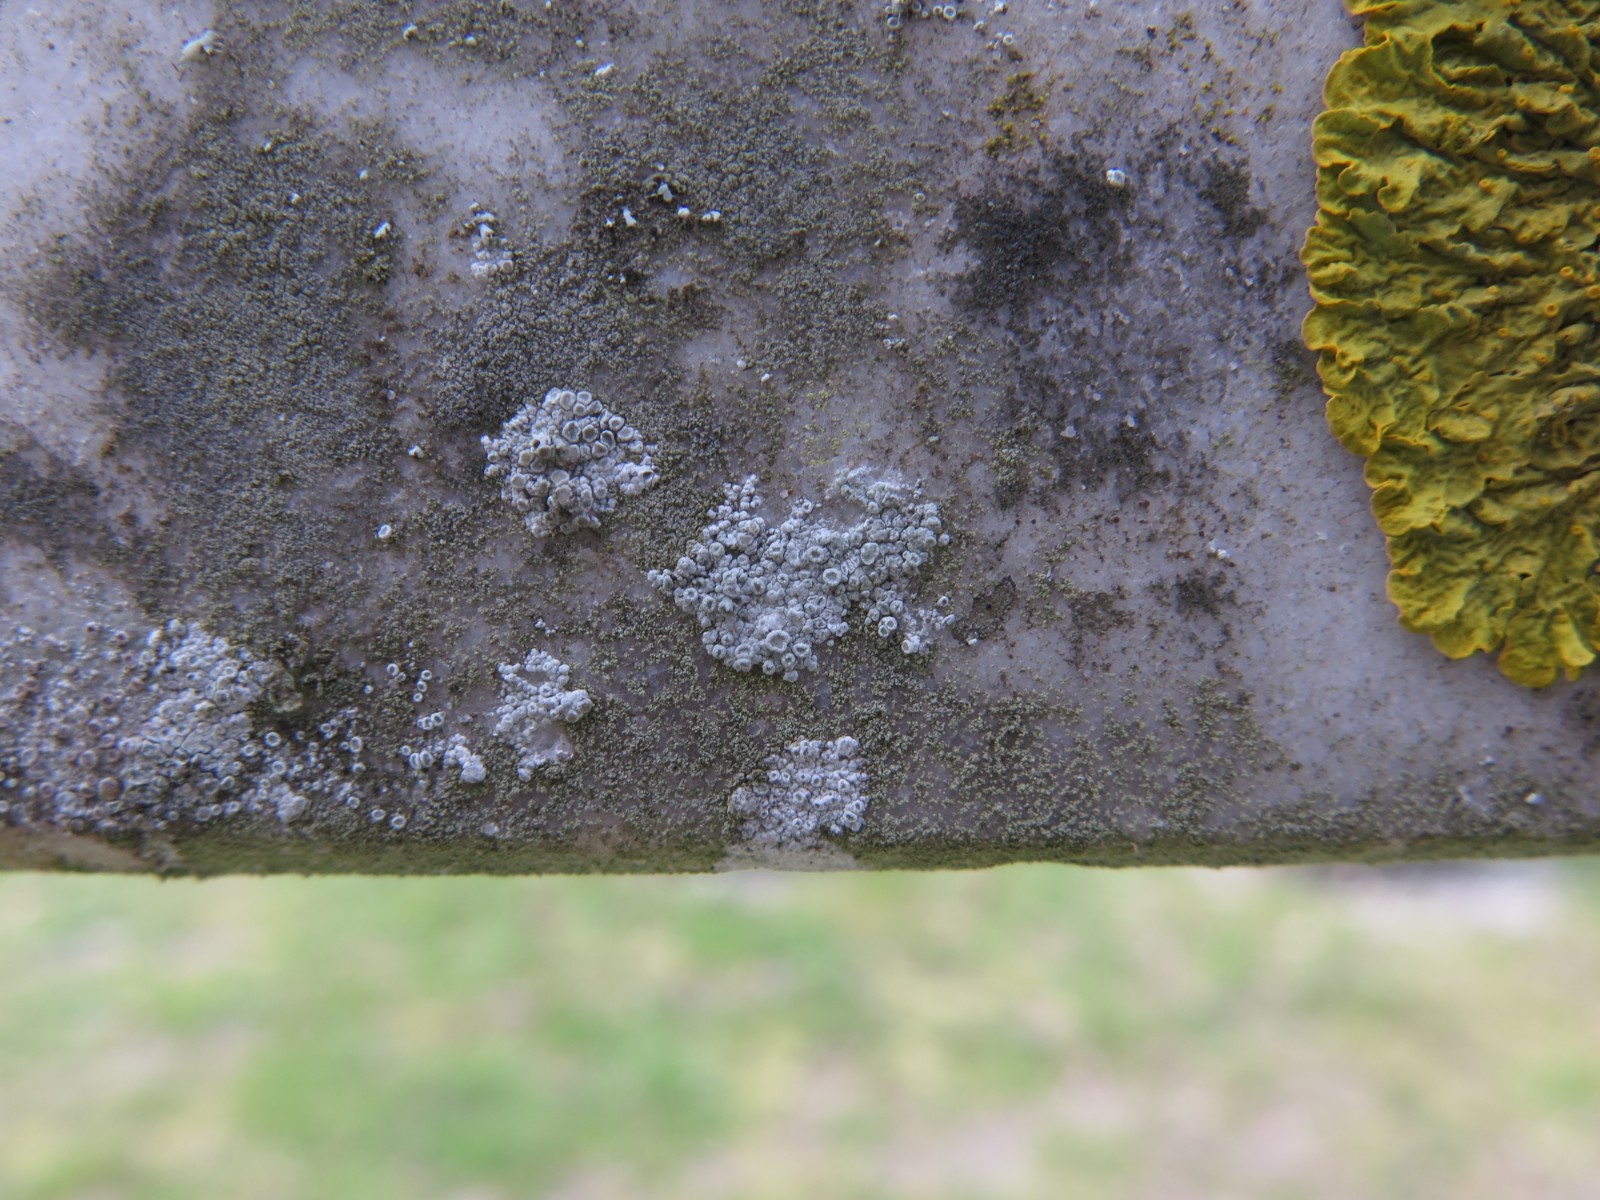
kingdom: Fungi
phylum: Ascomycota
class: Lecanoromycetes
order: Lecanorales
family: Lecanoraceae
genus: Polyozosia
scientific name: Polyozosia albescens
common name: cement-kantskivelav
